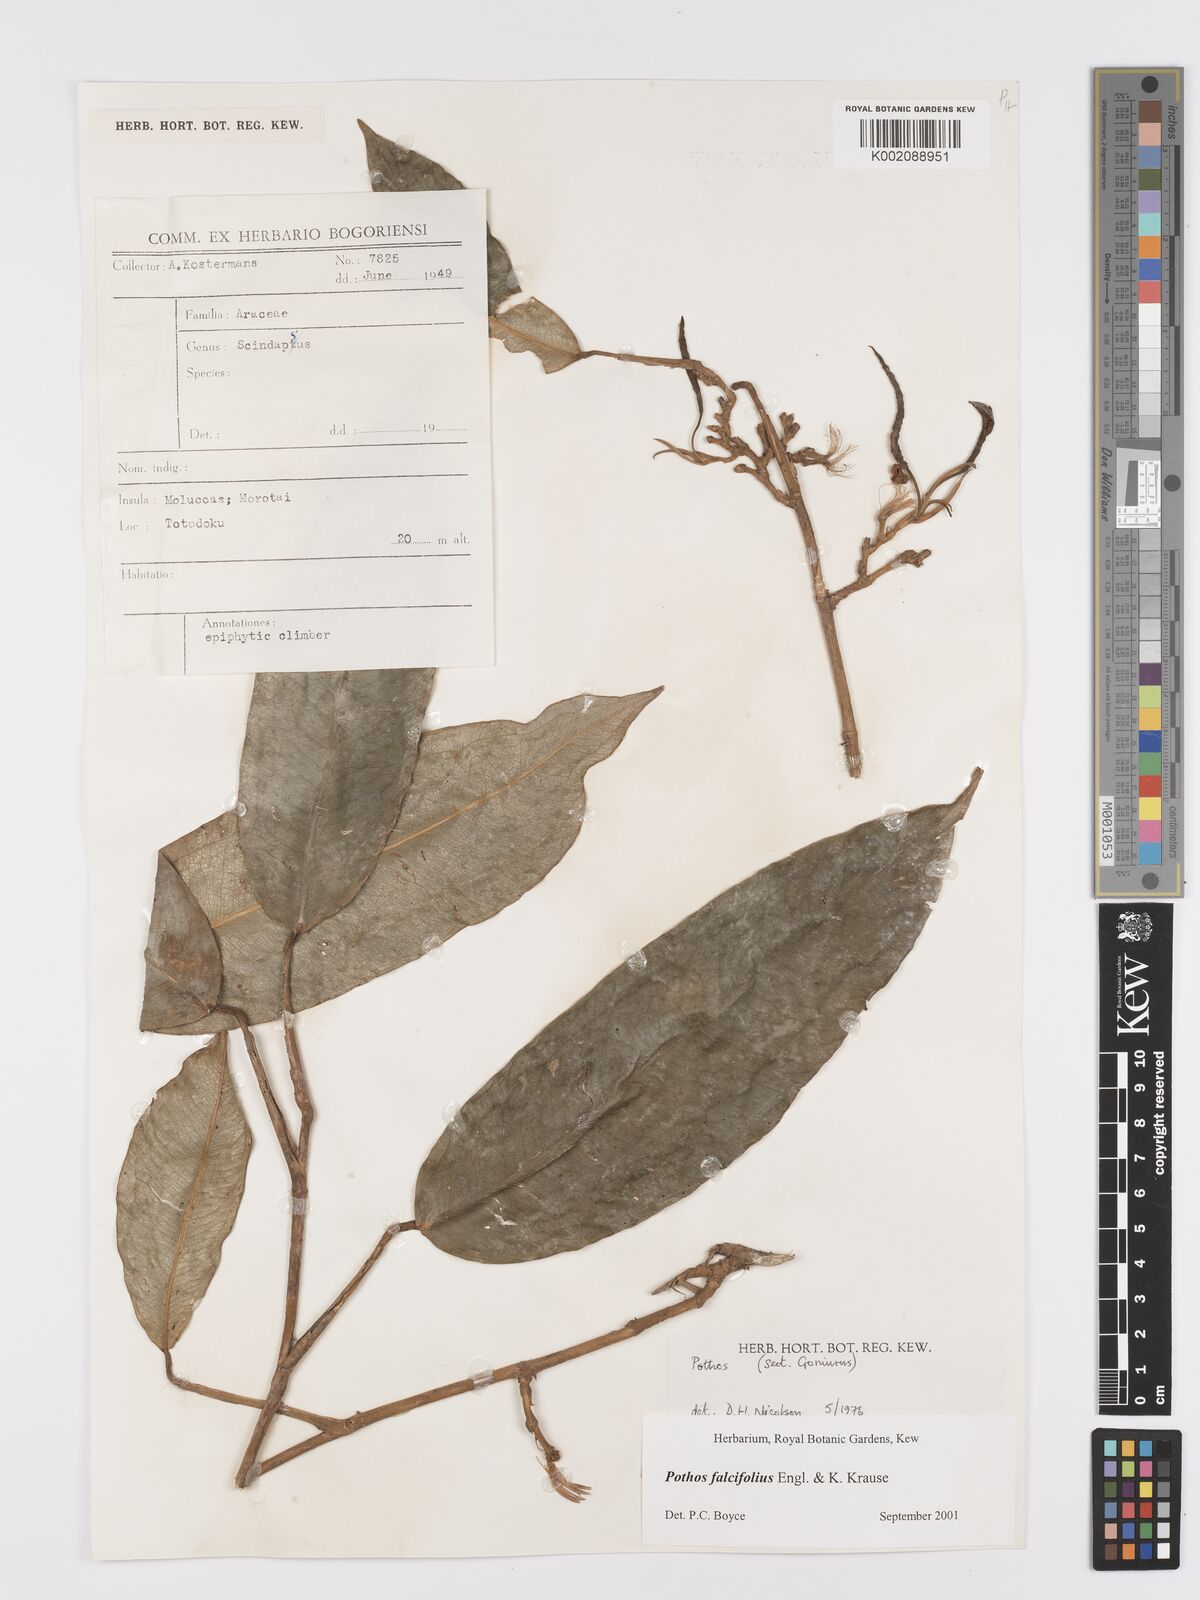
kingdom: Plantae
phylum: Tracheophyta
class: Liliopsida
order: Alismatales
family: Araceae
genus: Pothos
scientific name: Pothos falcifolius
